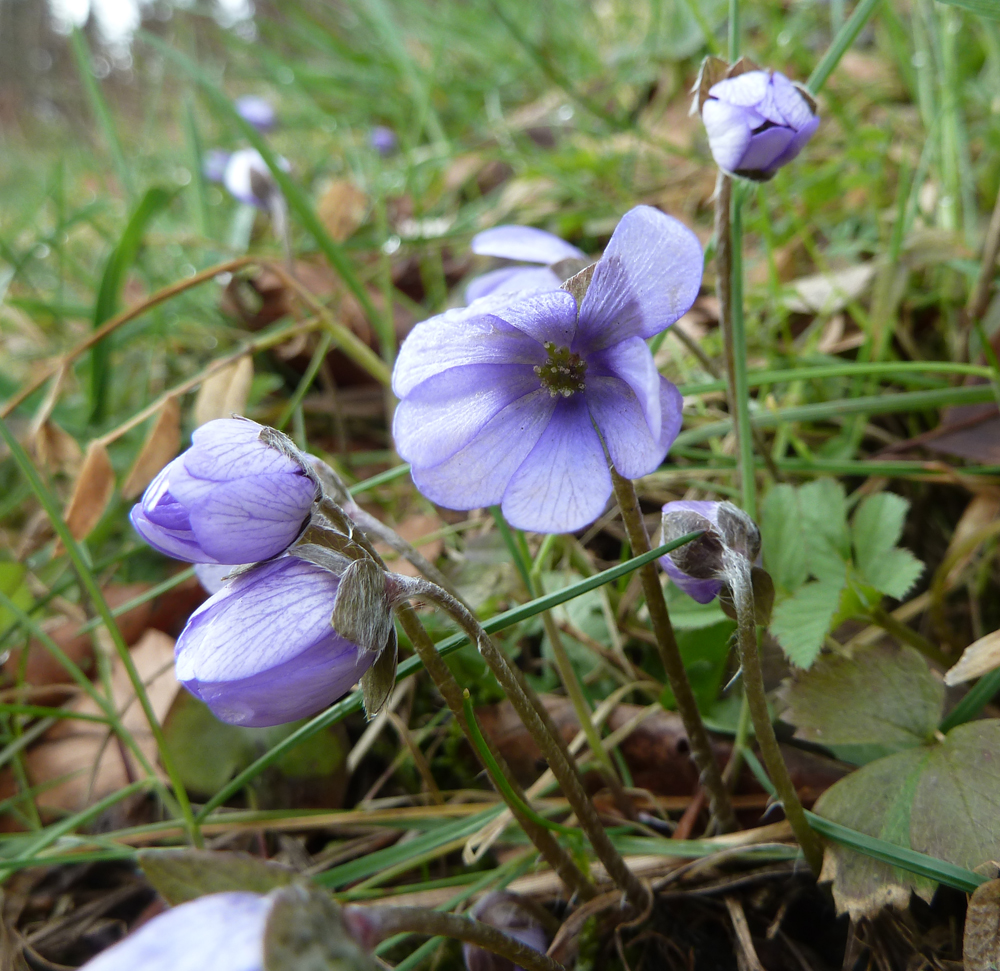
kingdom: Plantae
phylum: Tracheophyta
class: Magnoliopsida
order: Ranunculales
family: Ranunculaceae
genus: Hepatica
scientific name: Hepatica nobilis
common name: Liverleaf
